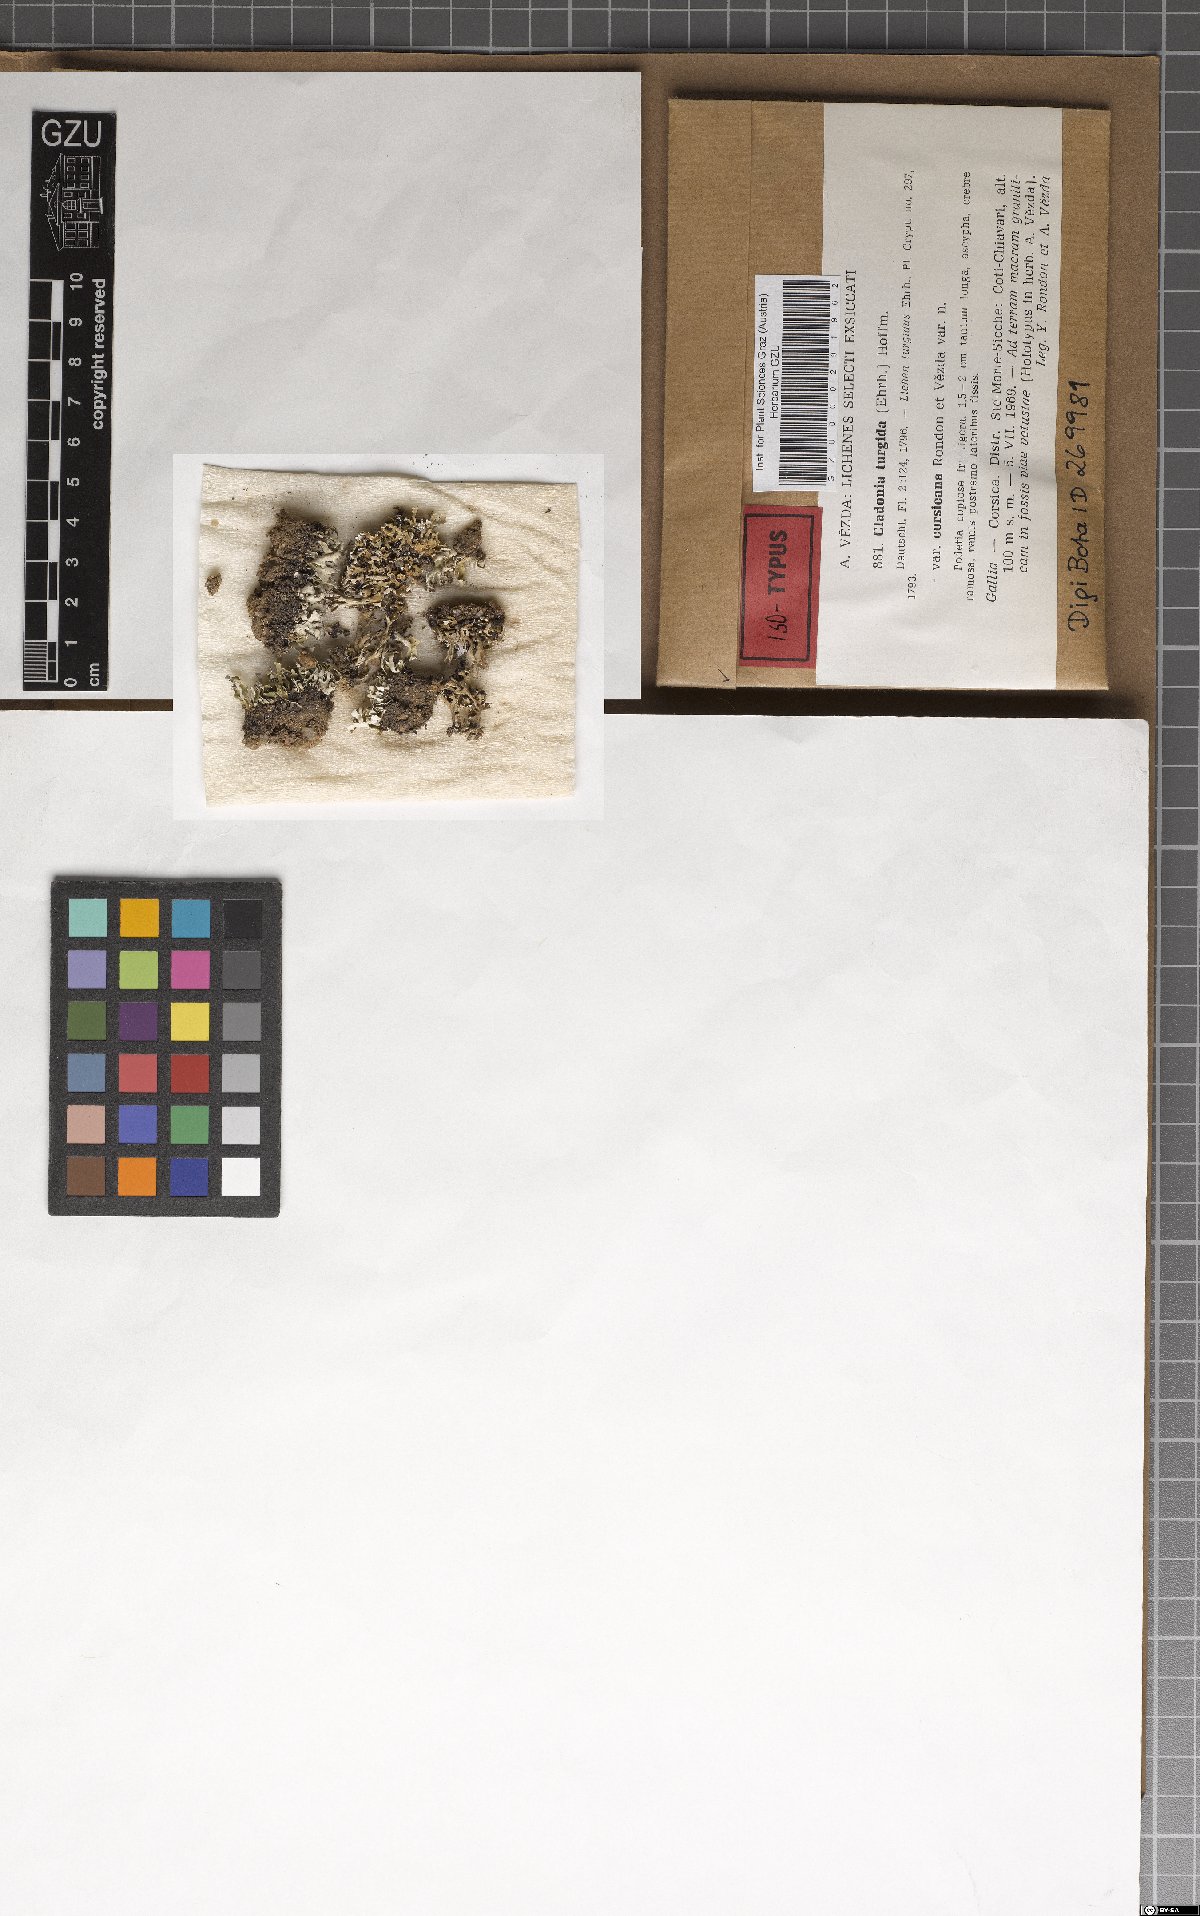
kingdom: Fungi
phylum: Ascomycota
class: Lecanoromycetes
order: Lecanorales
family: Cladoniaceae
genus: Cladonia
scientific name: Cladonia corsicana
